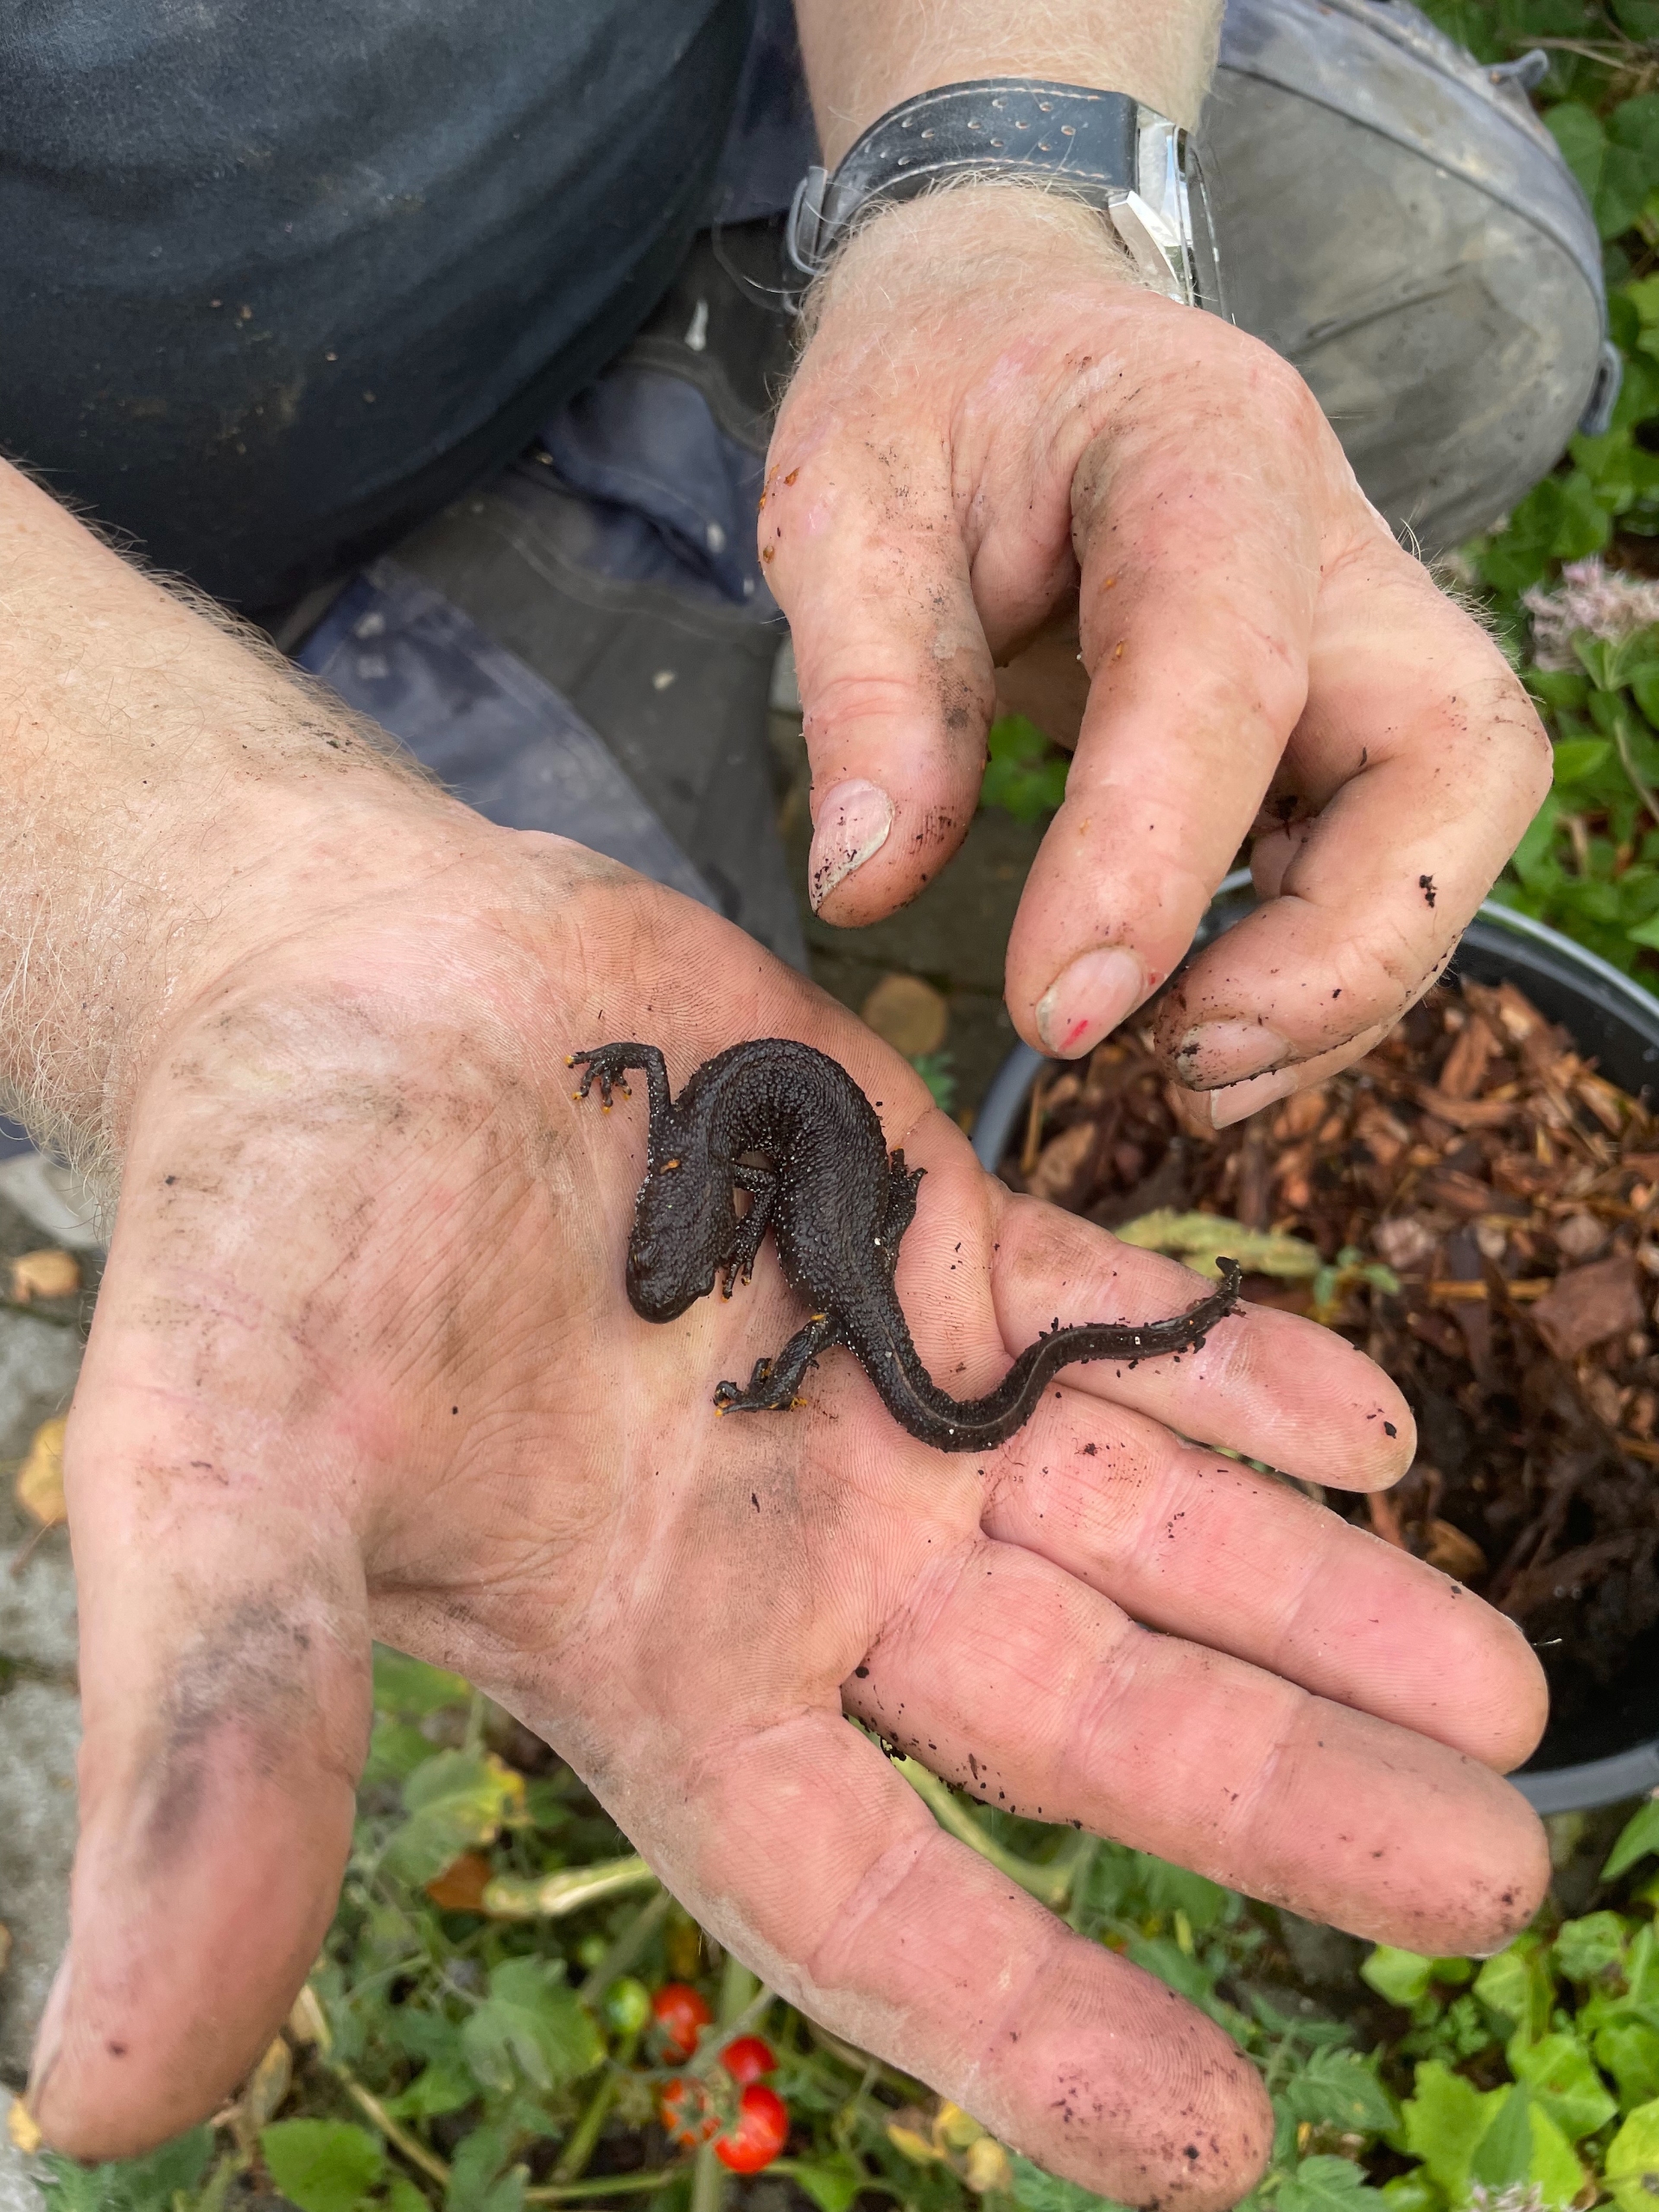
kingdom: Animalia
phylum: Chordata
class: Amphibia
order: Caudata
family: Salamandridae
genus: Triturus
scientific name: Triturus cristatus
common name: Stor vandsalamander
